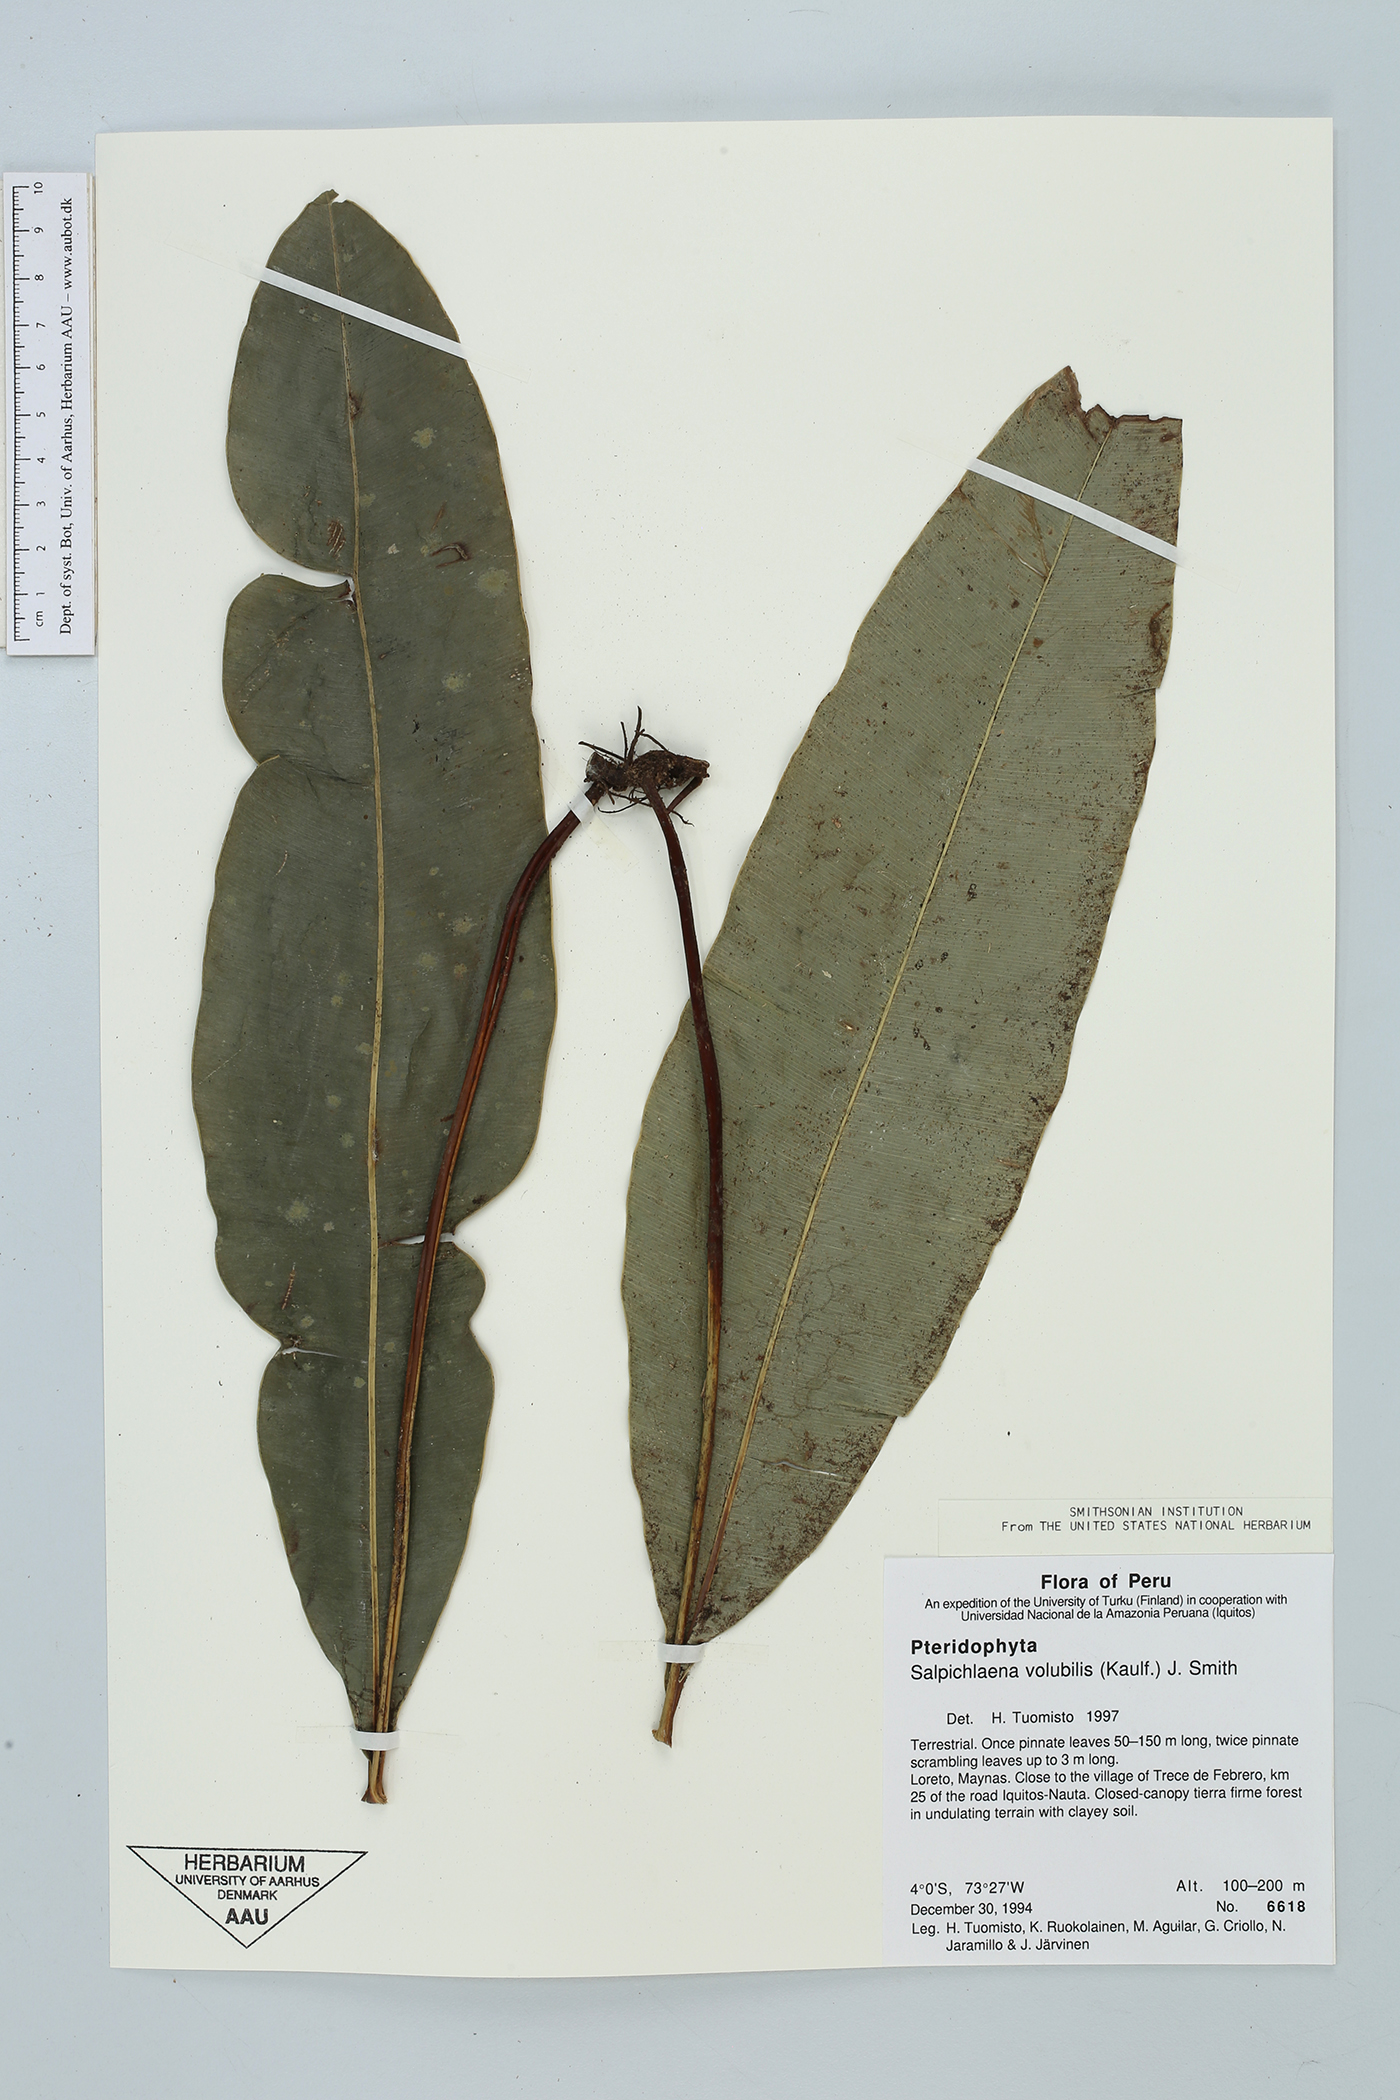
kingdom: Plantae
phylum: Tracheophyta
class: Polypodiopsida
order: Polypodiales
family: Blechnaceae
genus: Salpichlaena
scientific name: Salpichlaena volubilis
